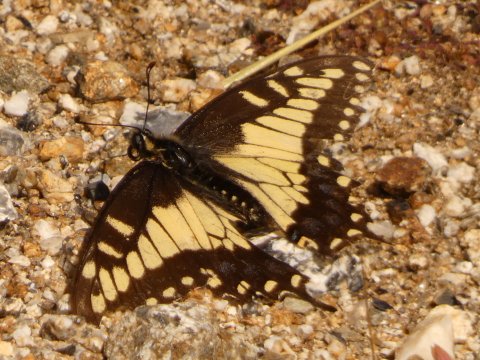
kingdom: Animalia
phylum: Arthropoda
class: Insecta
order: Lepidoptera
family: Papilionidae
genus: Papilio
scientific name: Papilio polyxenes
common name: Black Swallowtail
